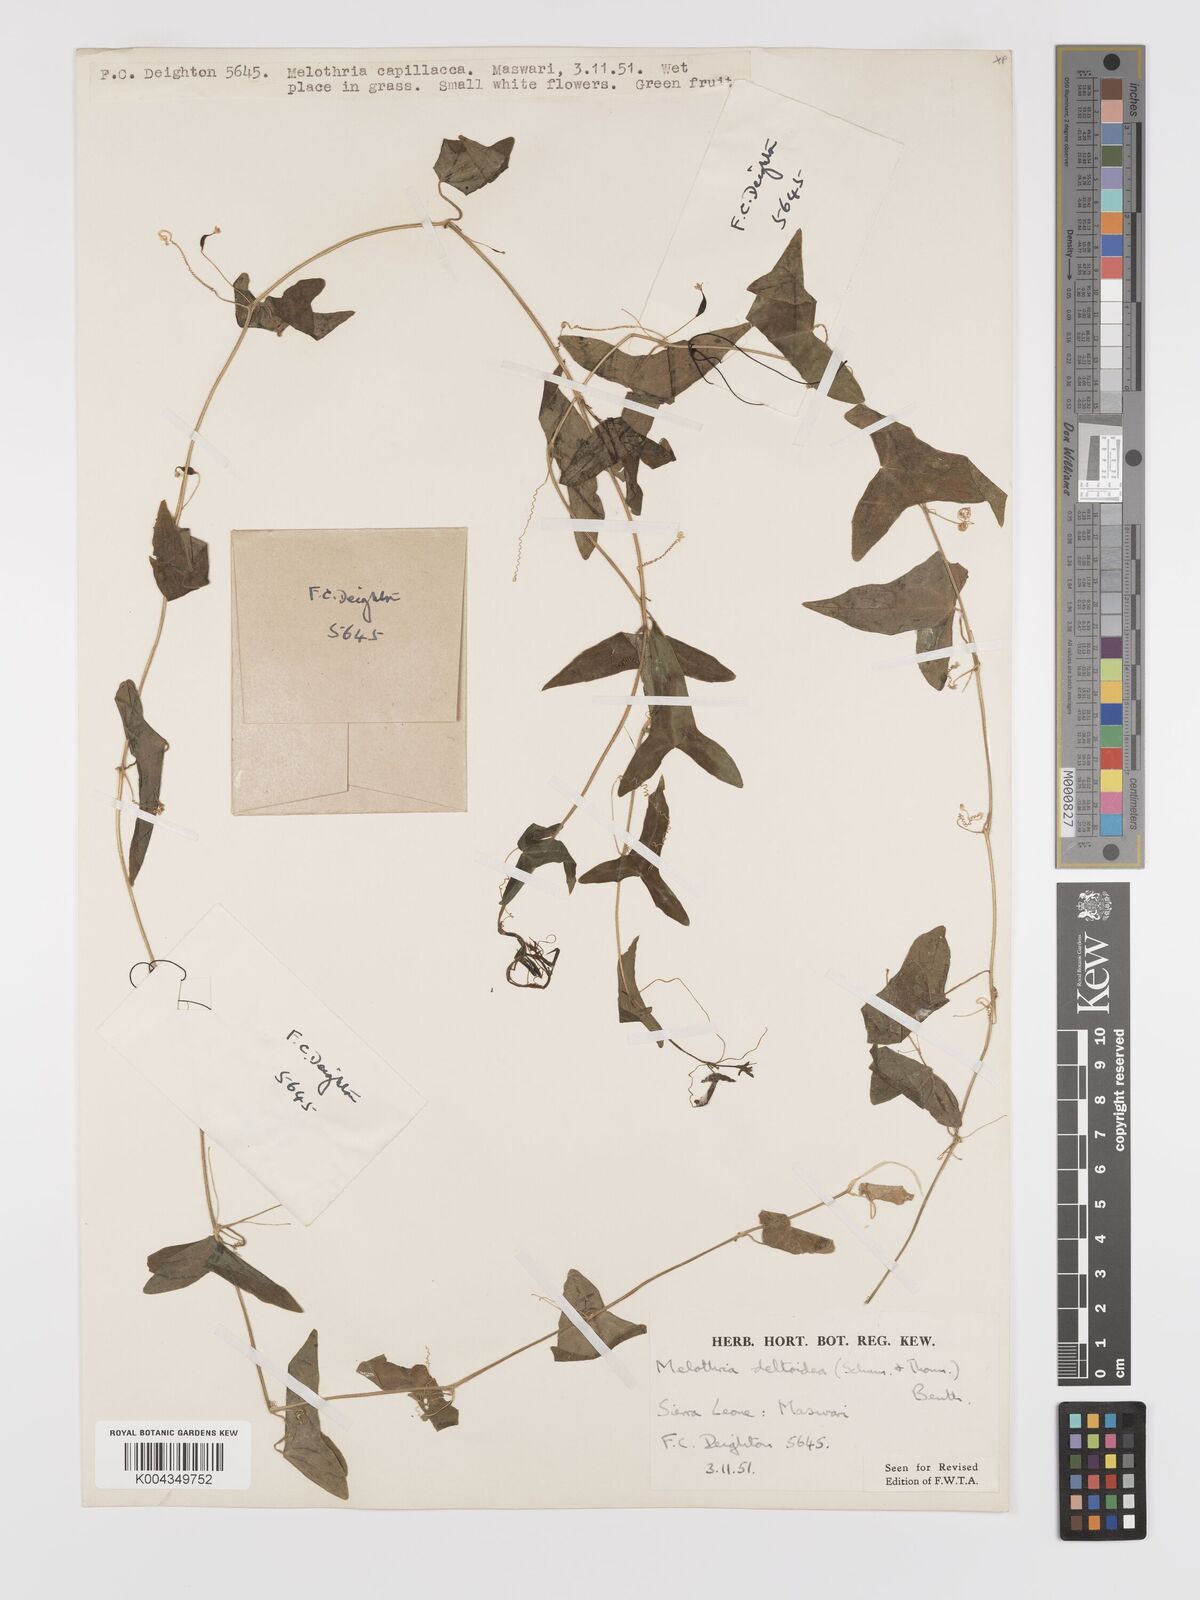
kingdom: Plantae
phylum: Tracheophyta
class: Magnoliopsida
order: Cucurbitales
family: Cucurbitaceae
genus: Zehneria
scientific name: Zehneria thwaitesii
